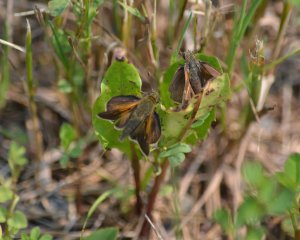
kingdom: Animalia
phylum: Arthropoda
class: Insecta
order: Lepidoptera
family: Hesperiidae
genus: Polites
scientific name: Polites themistocles
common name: Tawny-edged Skipper
